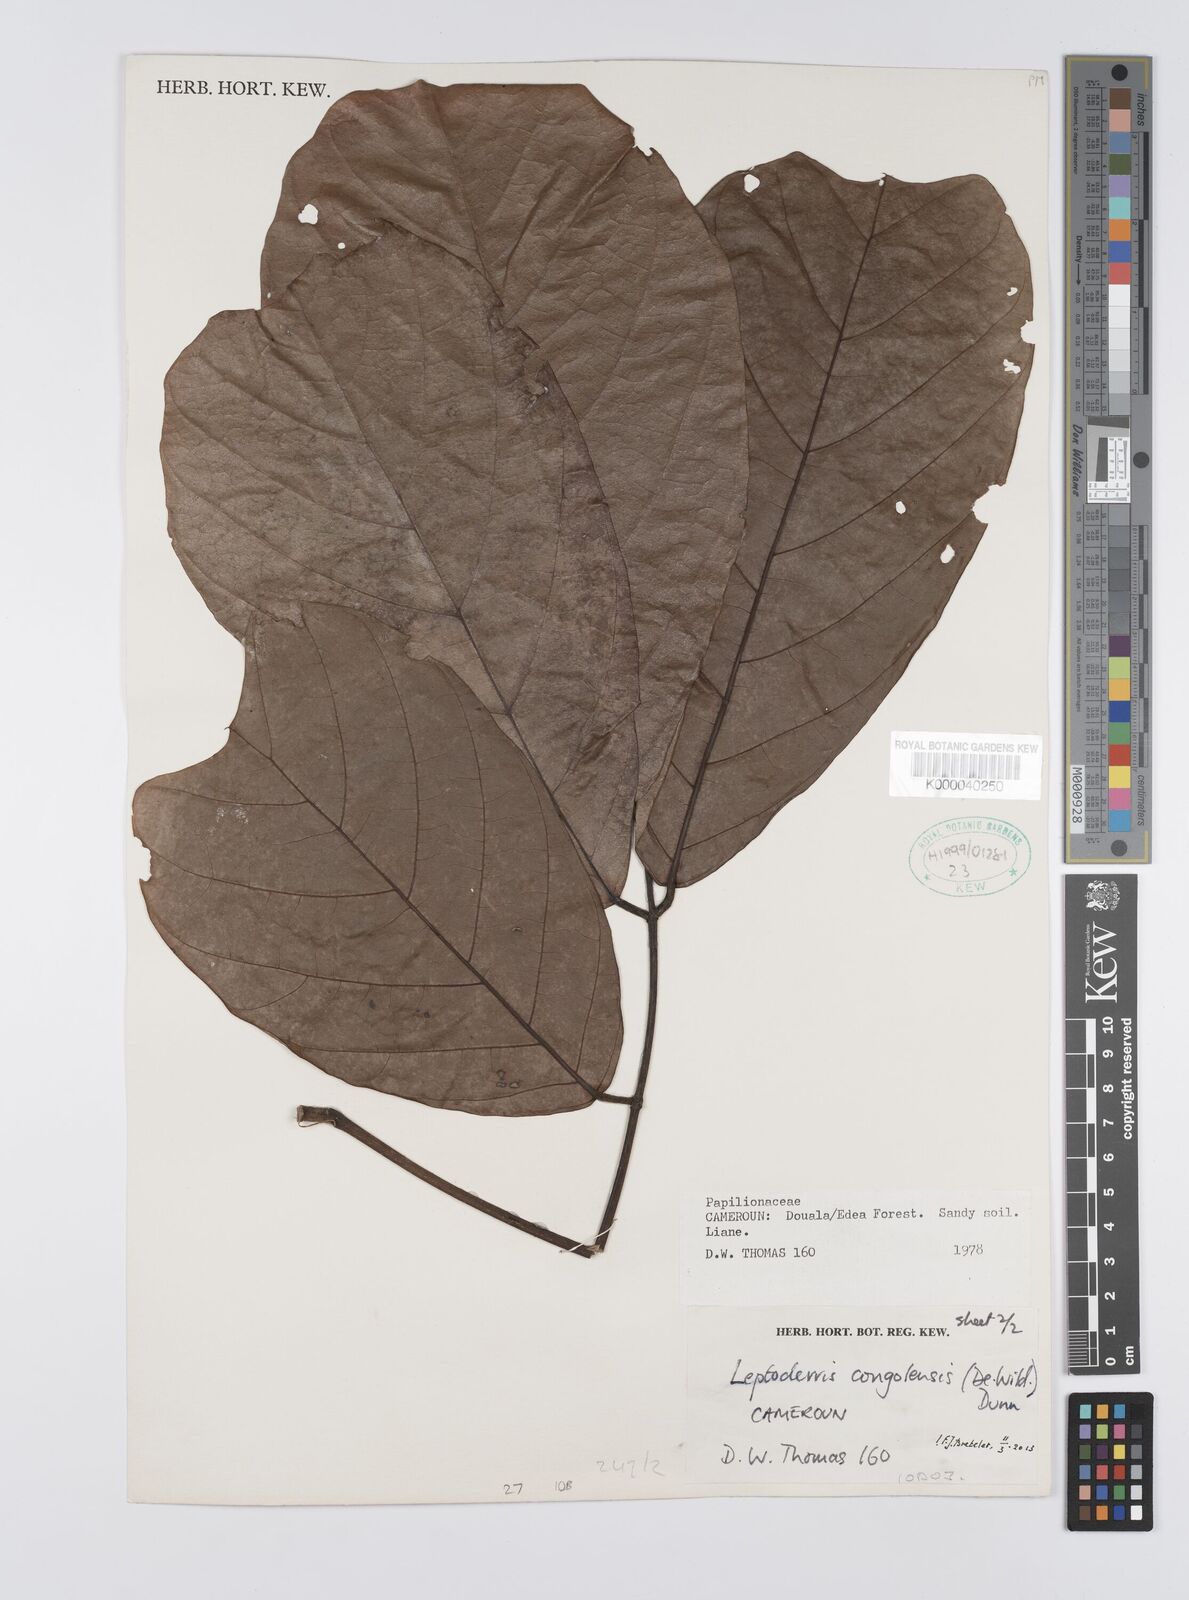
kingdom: Plantae
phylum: Tracheophyta
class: Magnoliopsida
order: Fabales
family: Fabaceae
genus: Leptoderris
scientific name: Leptoderris congolensis
